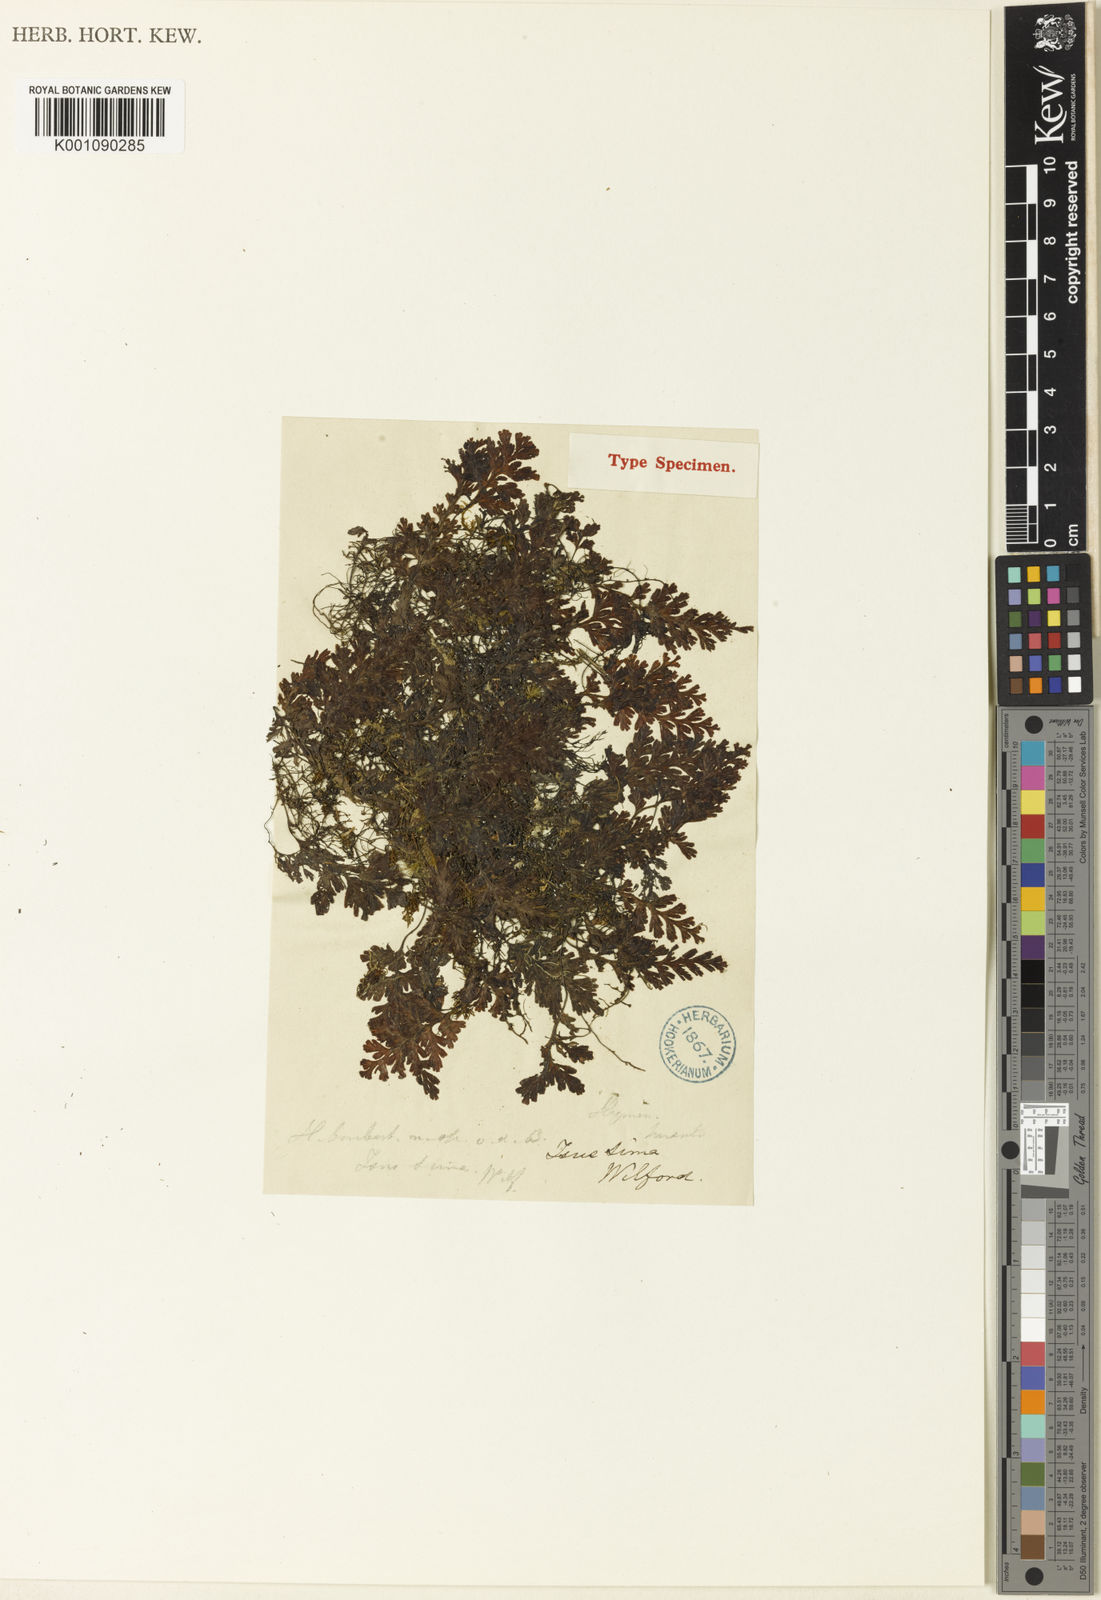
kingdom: Plantae
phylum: Tracheophyta
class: Polypodiopsida
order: Hymenophyllales
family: Hymenophyllaceae
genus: Hymenophyllum
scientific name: Hymenophyllum barbatum
